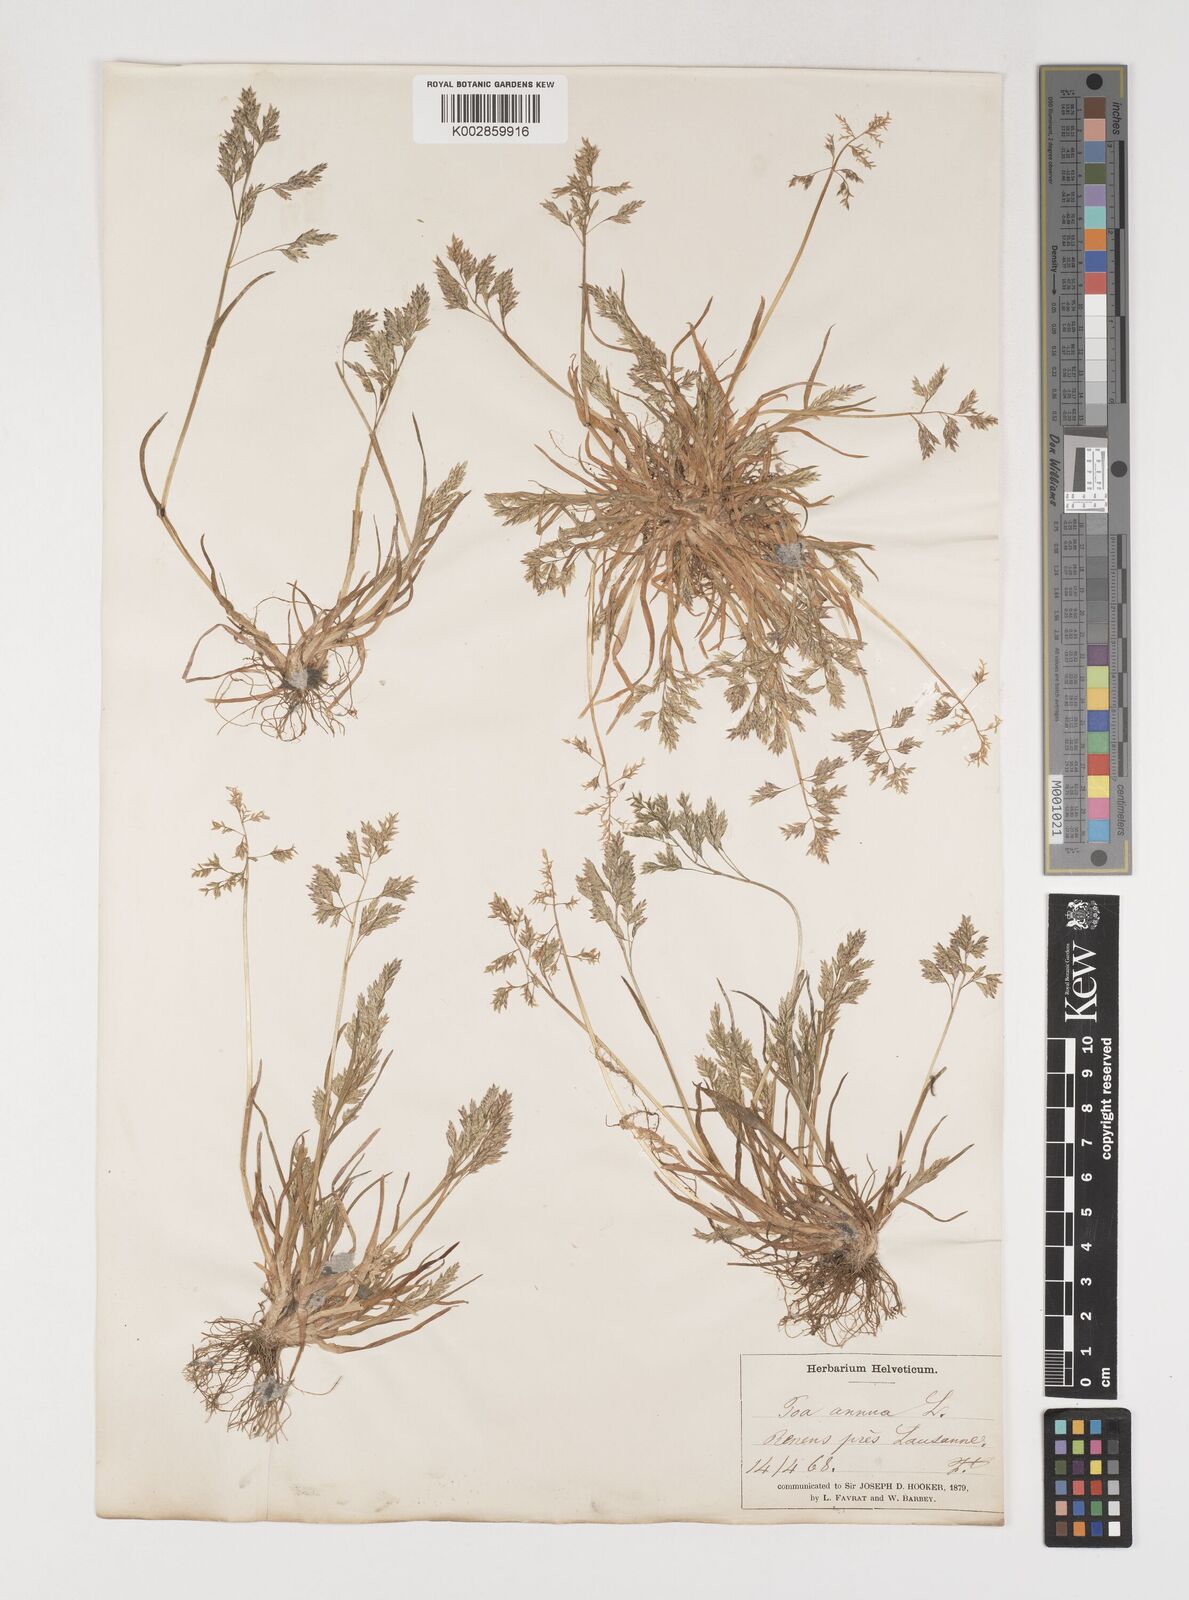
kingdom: Plantae
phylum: Tracheophyta
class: Liliopsida
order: Poales
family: Poaceae
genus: Poa
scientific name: Poa annua
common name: Annual bluegrass
